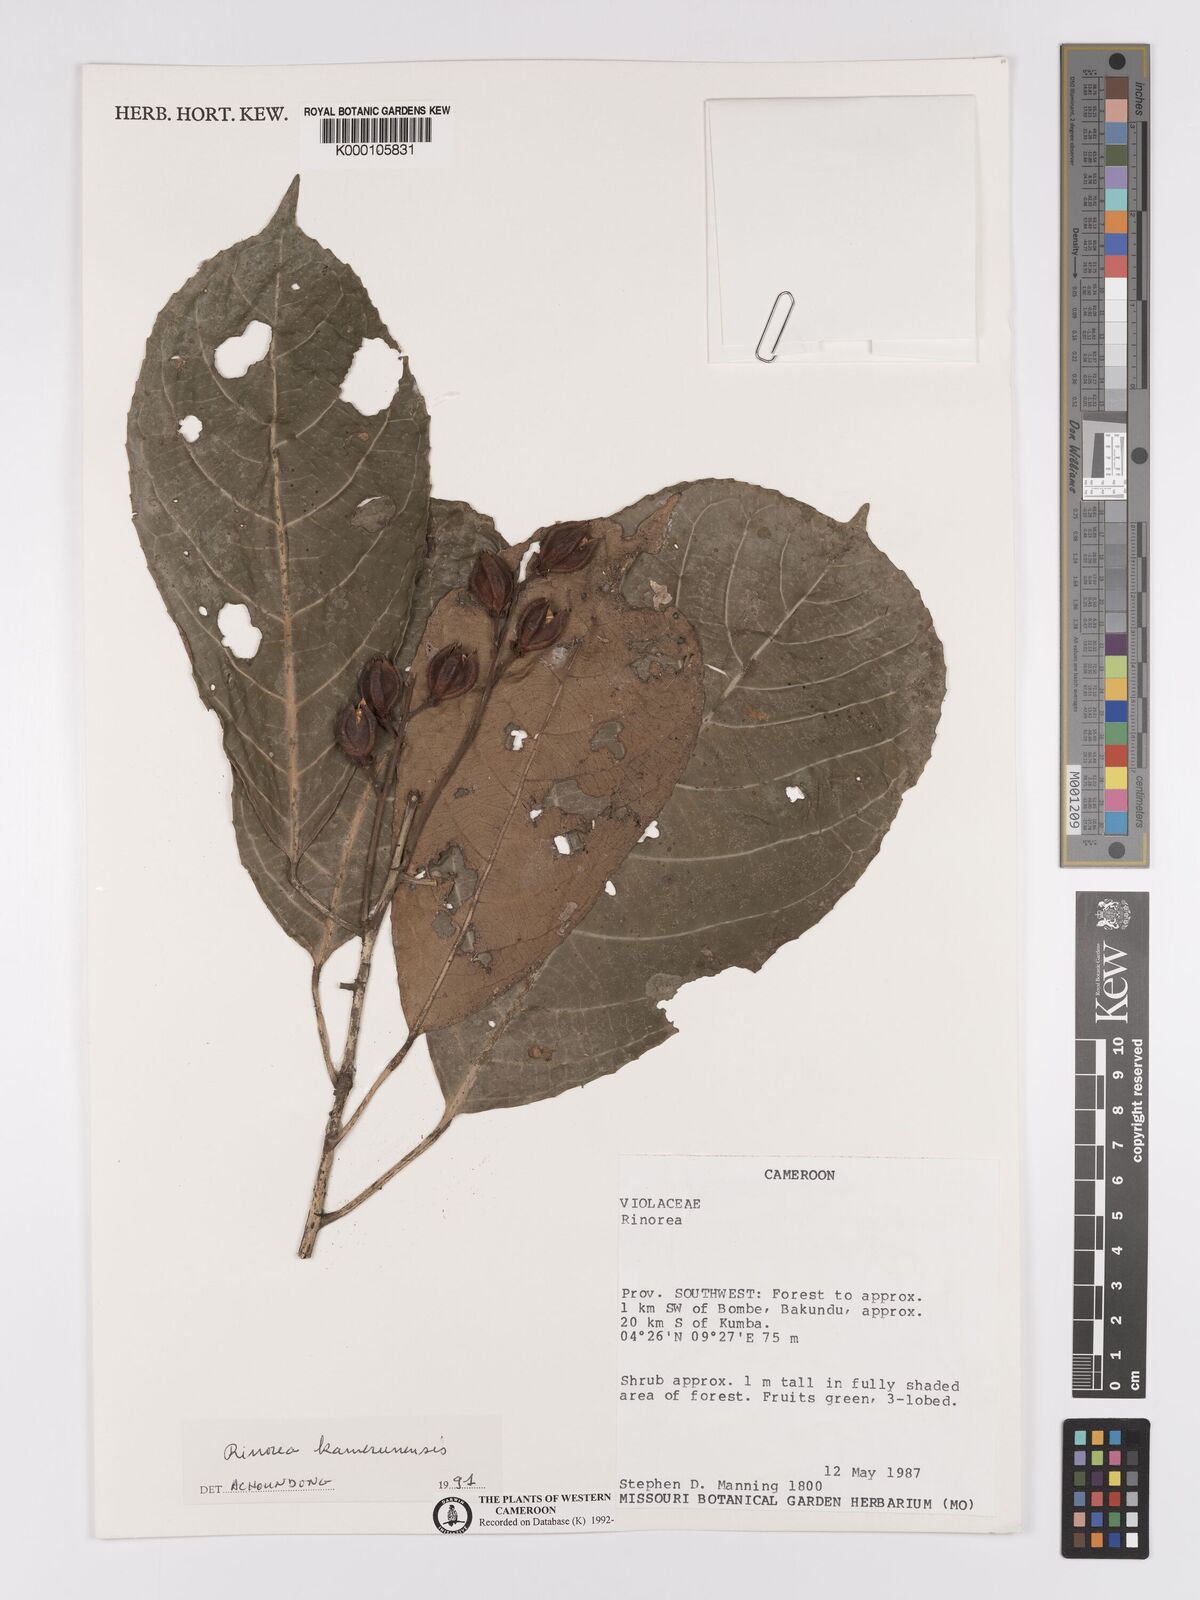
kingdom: Plantae
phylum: Tracheophyta
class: Magnoliopsida
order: Malpighiales
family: Violaceae
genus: Rinorea
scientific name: Rinorea kamerunensis
